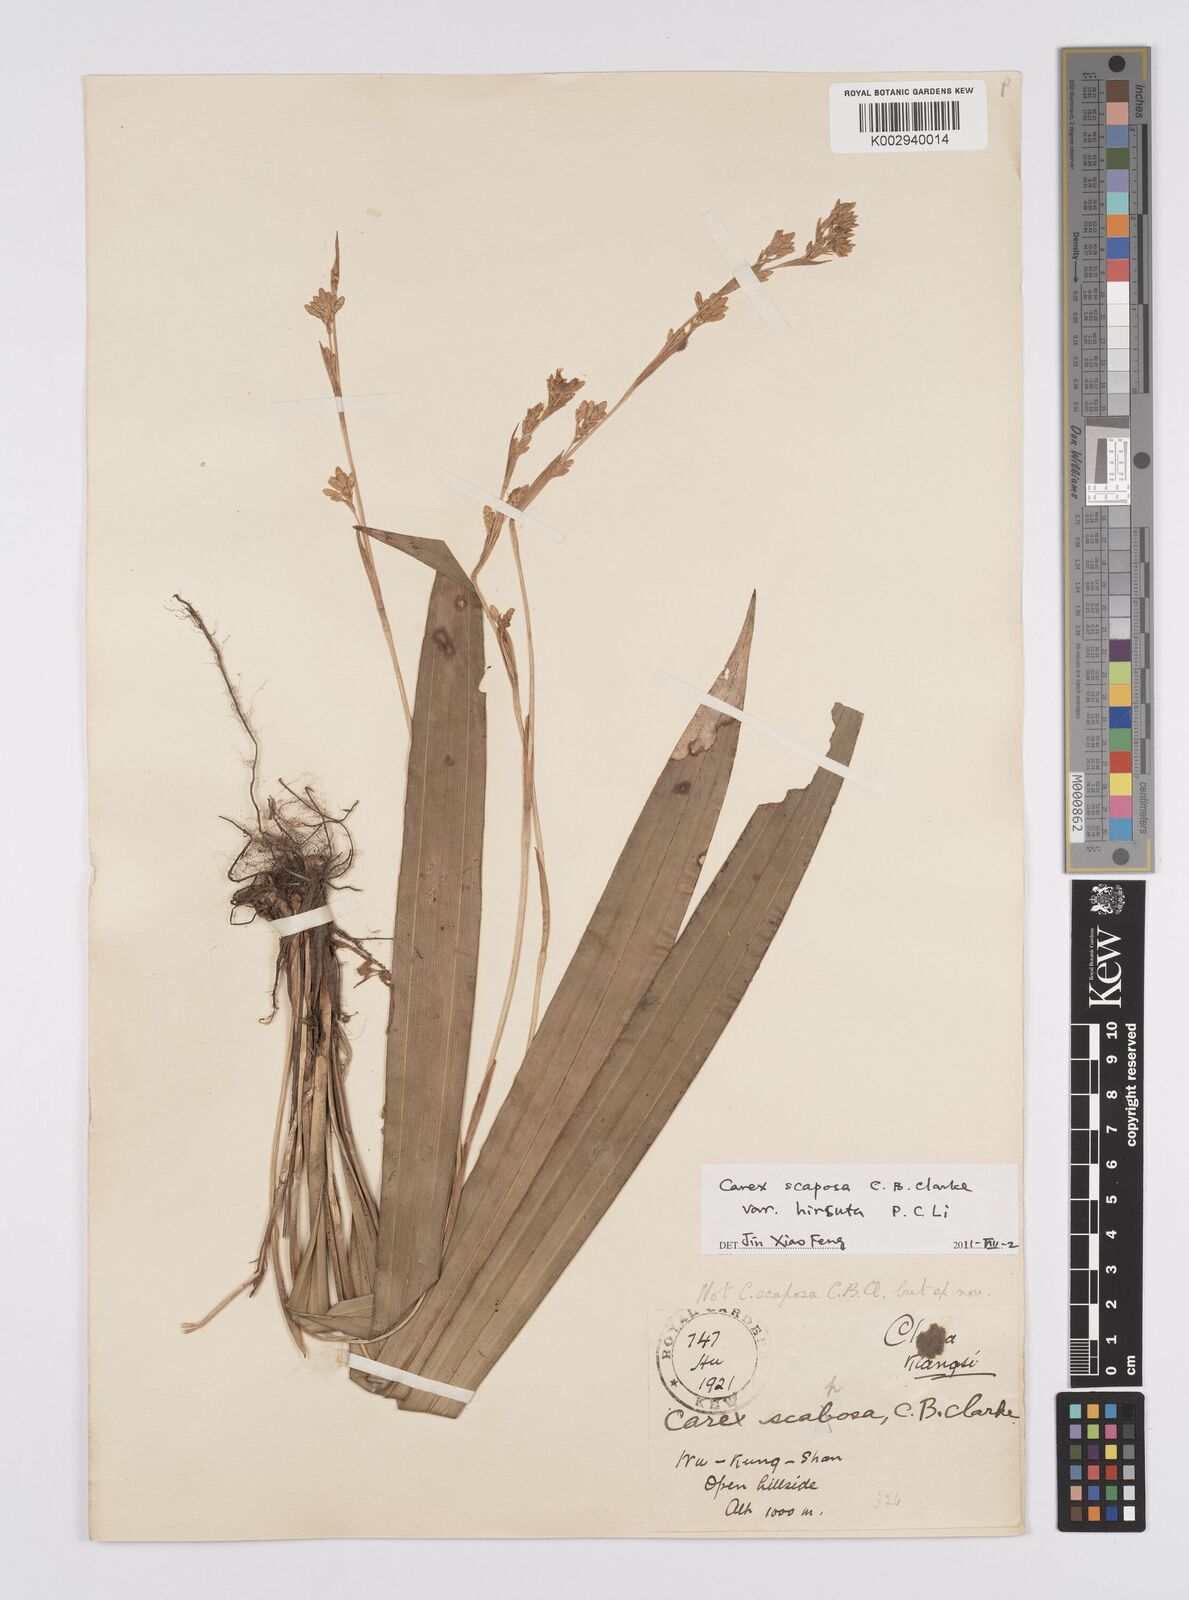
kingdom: Plantae
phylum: Tracheophyta
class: Liliopsida
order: Poales
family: Cyperaceae
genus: Carex
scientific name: Carex scaposa
